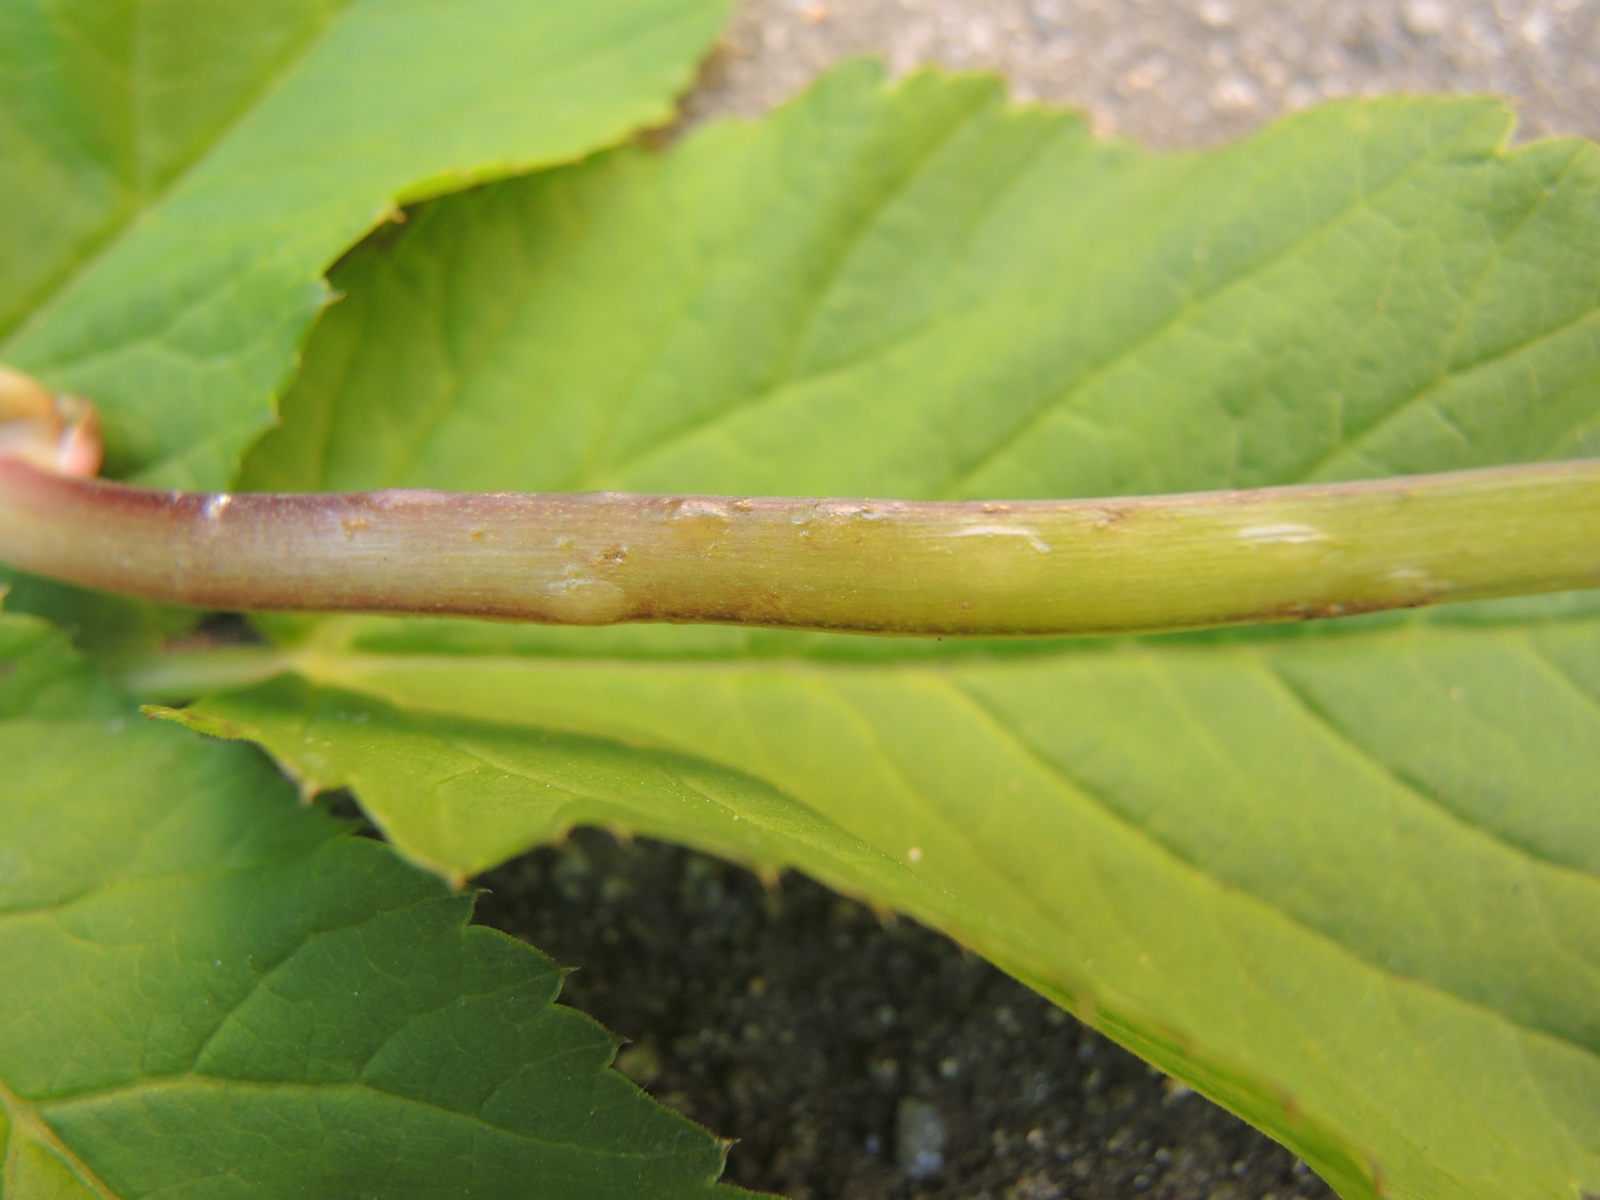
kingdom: Fungi
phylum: Ascomycota
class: Taphrinomycetes
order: Taphrinales
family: Taphrinaceae
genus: Protomyces
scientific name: Protomyces macrosporus
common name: skvalderkål-vablesæk
